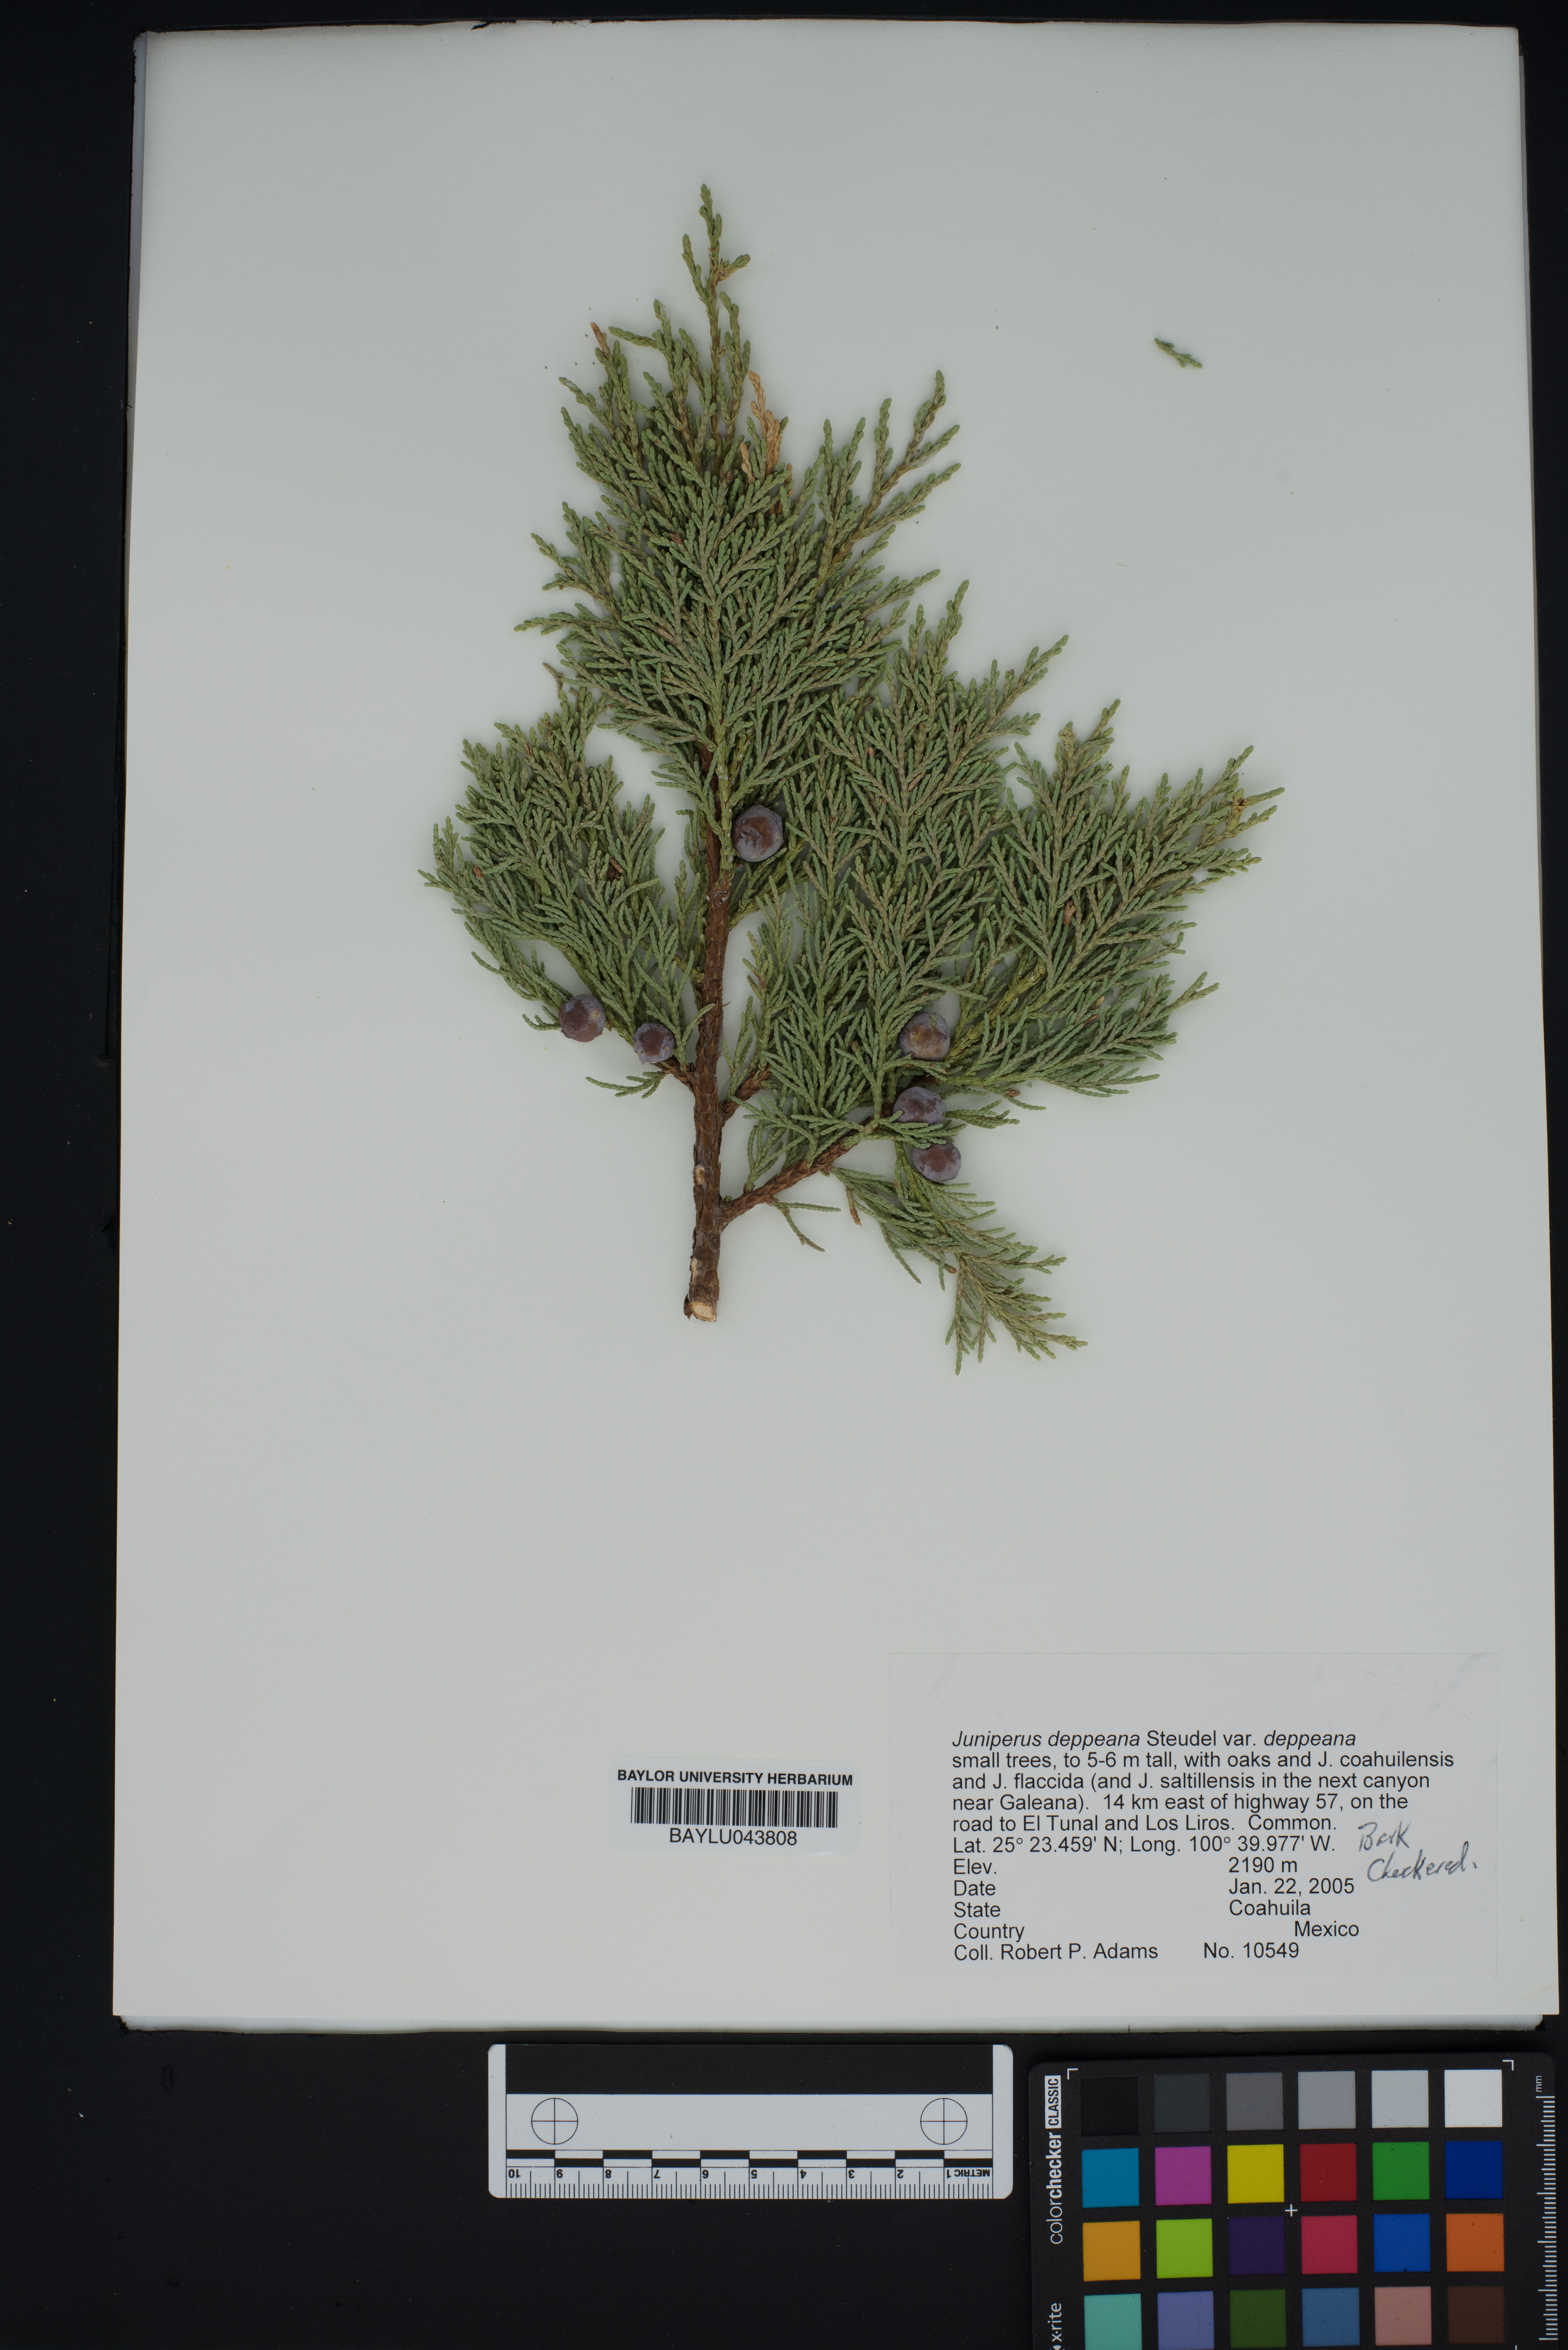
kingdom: Plantae
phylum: Tracheophyta
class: Pinopsida
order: Pinales
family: Cupressaceae
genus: Juniperus
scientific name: Juniperus deppeana
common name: Alligator juniper
